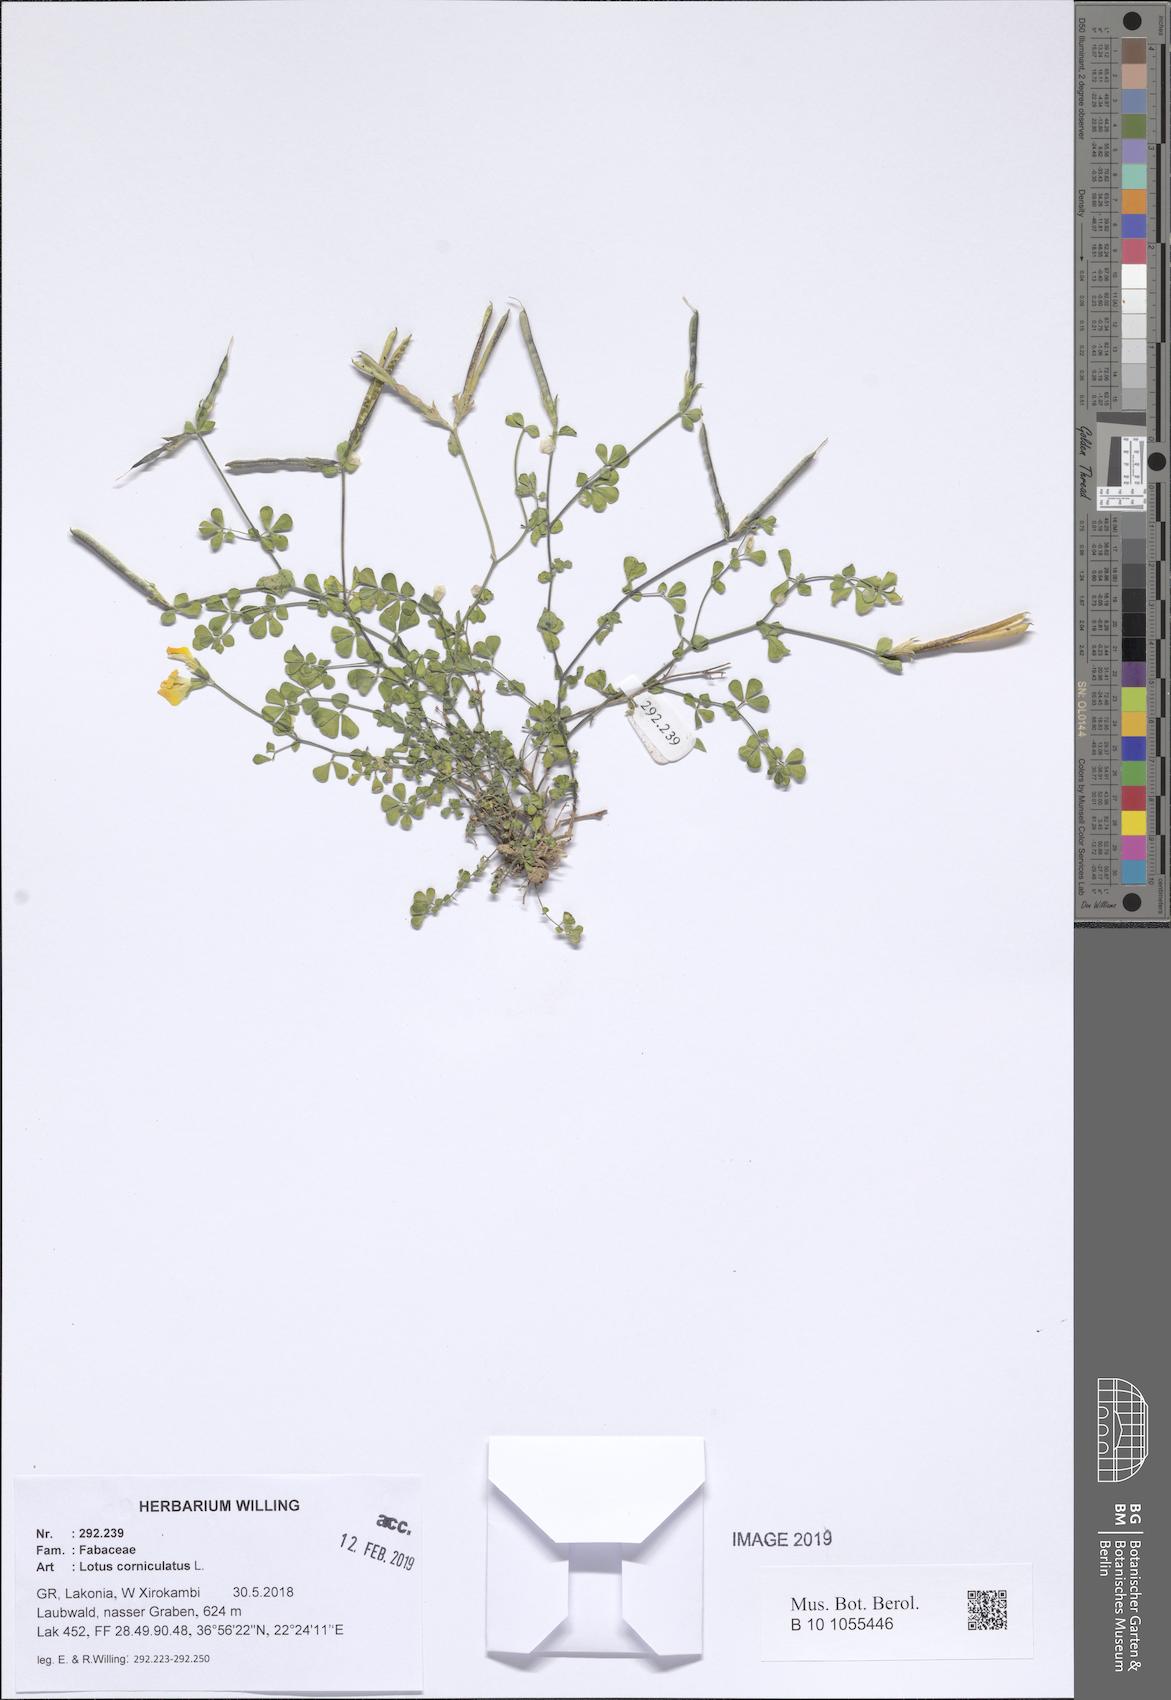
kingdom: Plantae
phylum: Tracheophyta
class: Magnoliopsida
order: Fabales
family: Fabaceae
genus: Lotus
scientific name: Lotus corniculatus
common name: Common bird's-foot-trefoil
